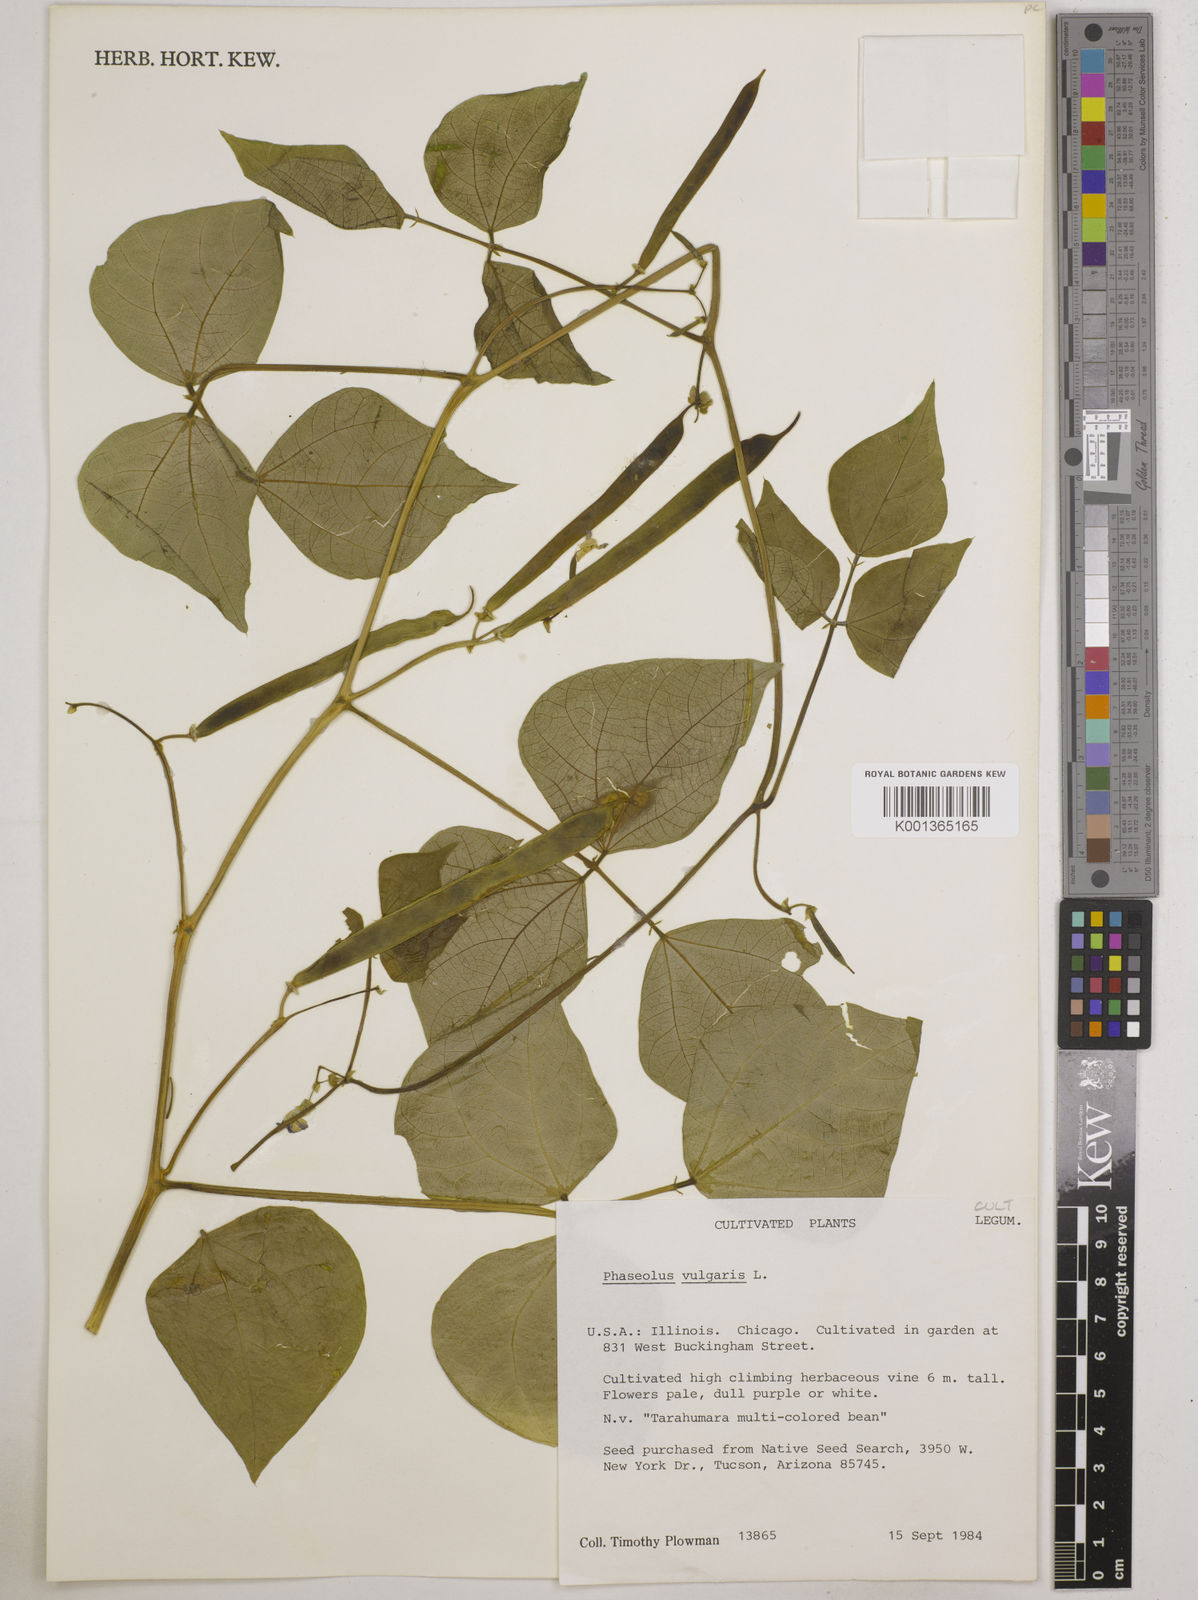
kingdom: Plantae
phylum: Tracheophyta
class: Magnoliopsida
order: Fabales
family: Fabaceae
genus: Phaseolus
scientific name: Phaseolus vulgaris
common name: Bean
